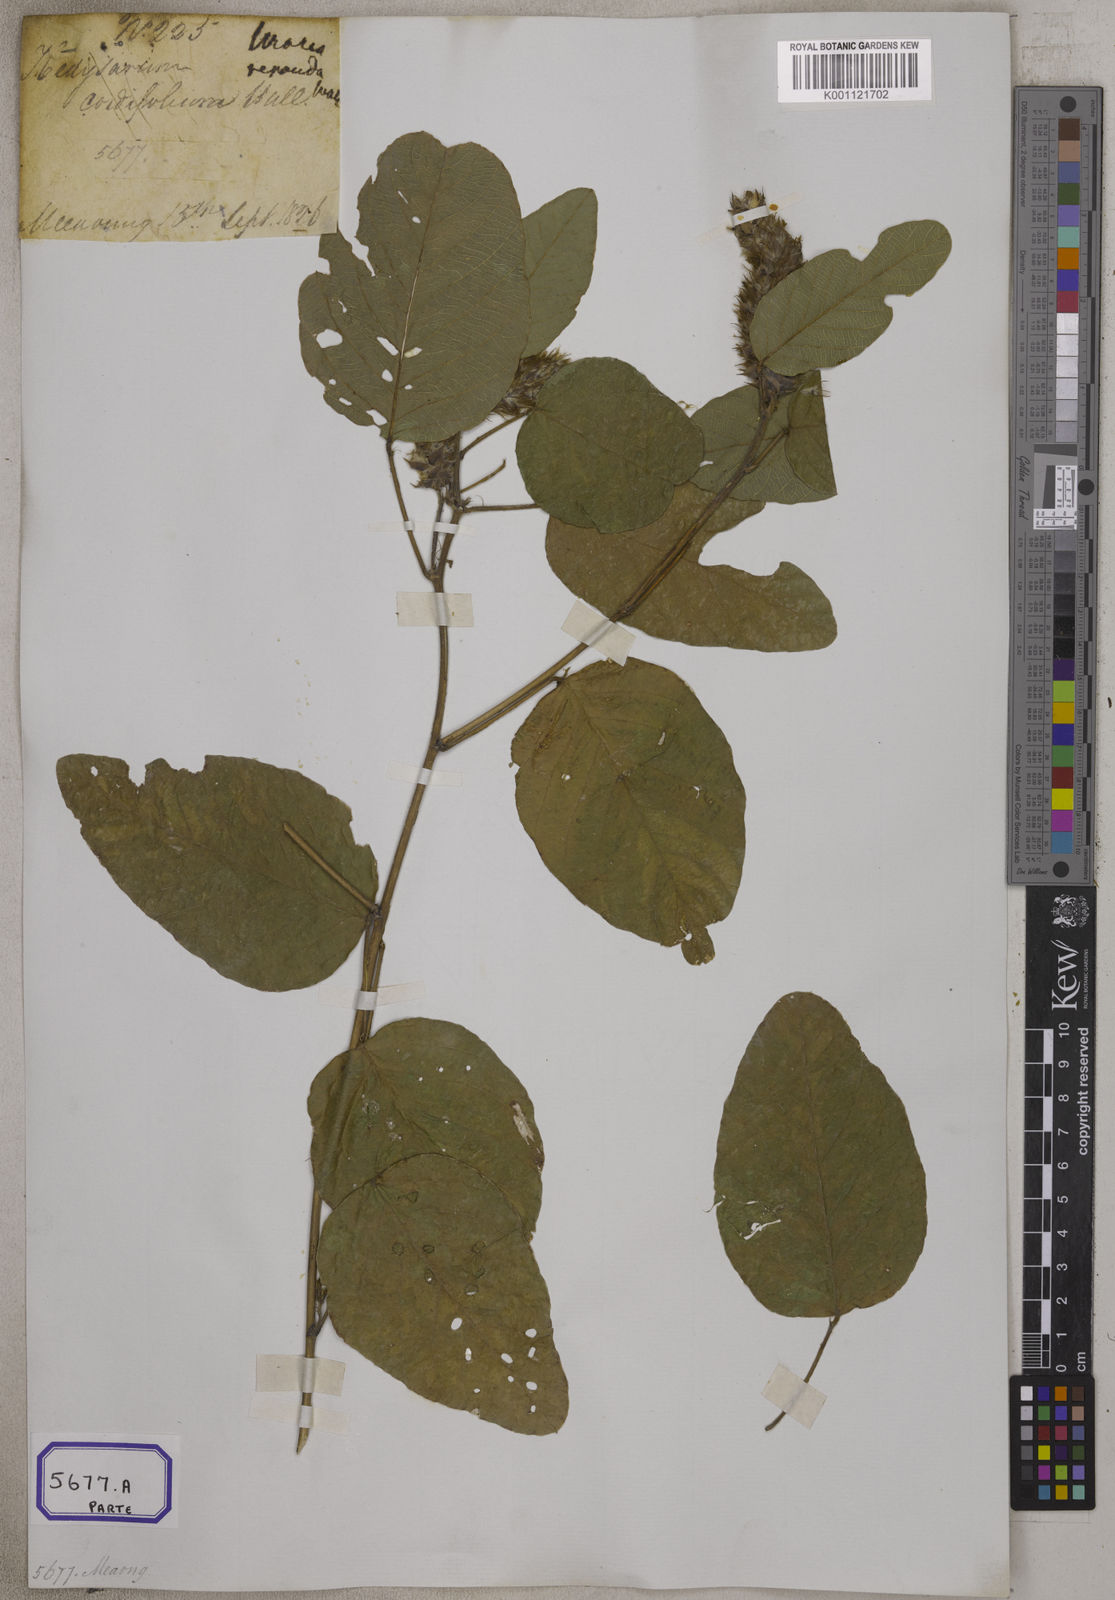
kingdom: Plantae
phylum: Tracheophyta
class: Magnoliopsida
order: Fabales
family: Fabaceae
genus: Uraria
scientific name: Uraria
